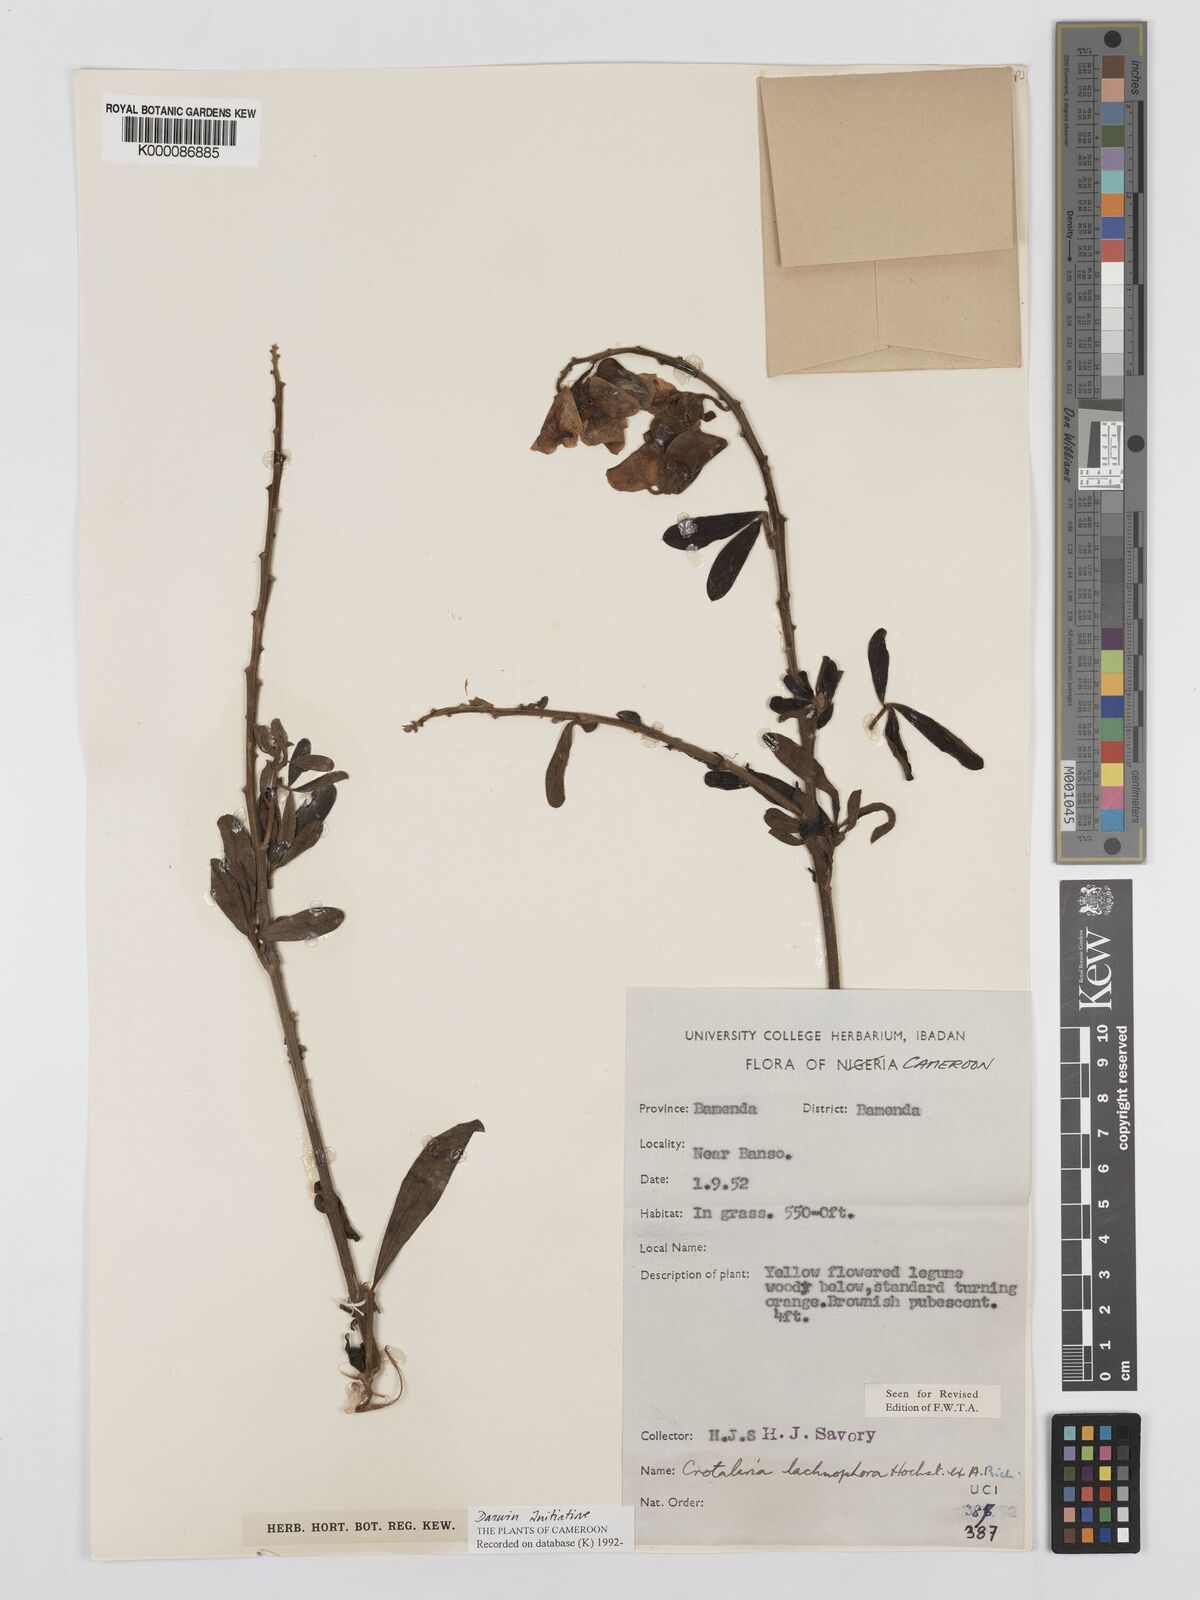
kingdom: Plantae
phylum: Tracheophyta
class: Magnoliopsida
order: Fabales
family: Fabaceae
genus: Crotalaria
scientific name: Crotalaria lachnophora
